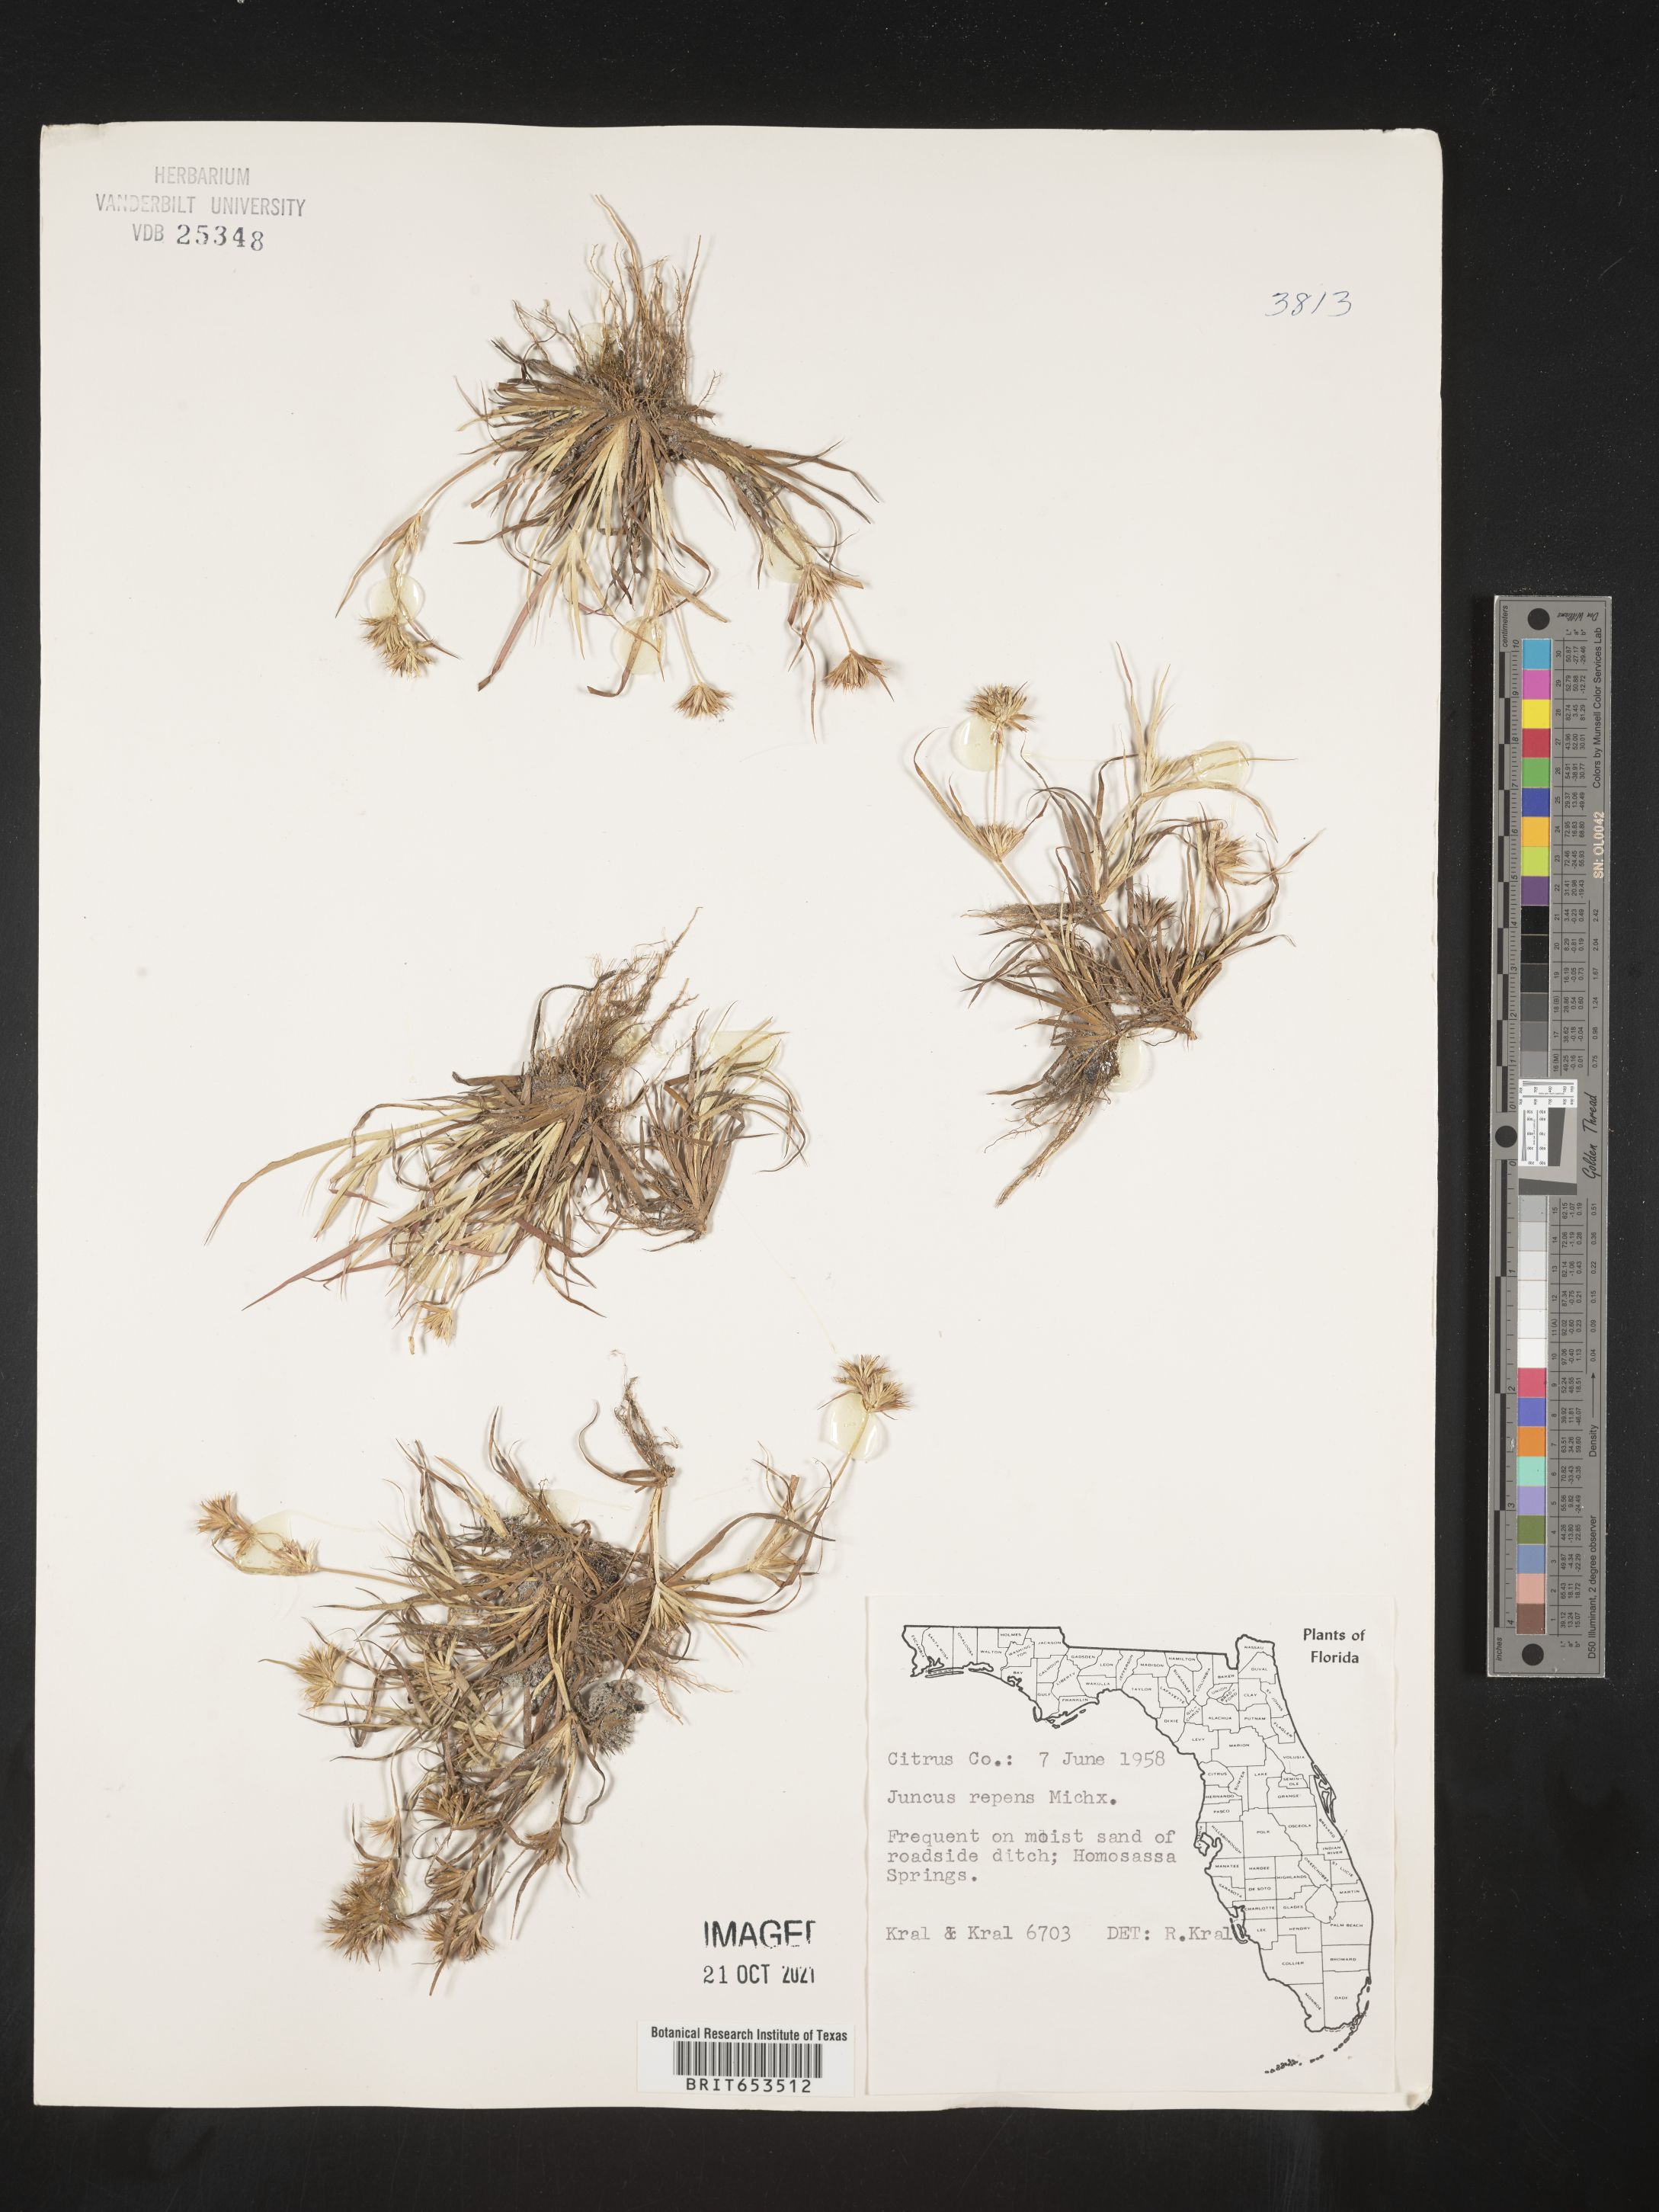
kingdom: Plantae
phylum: Tracheophyta
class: Liliopsida
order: Poales
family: Juncaceae
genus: Juncus
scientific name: Juncus repens
